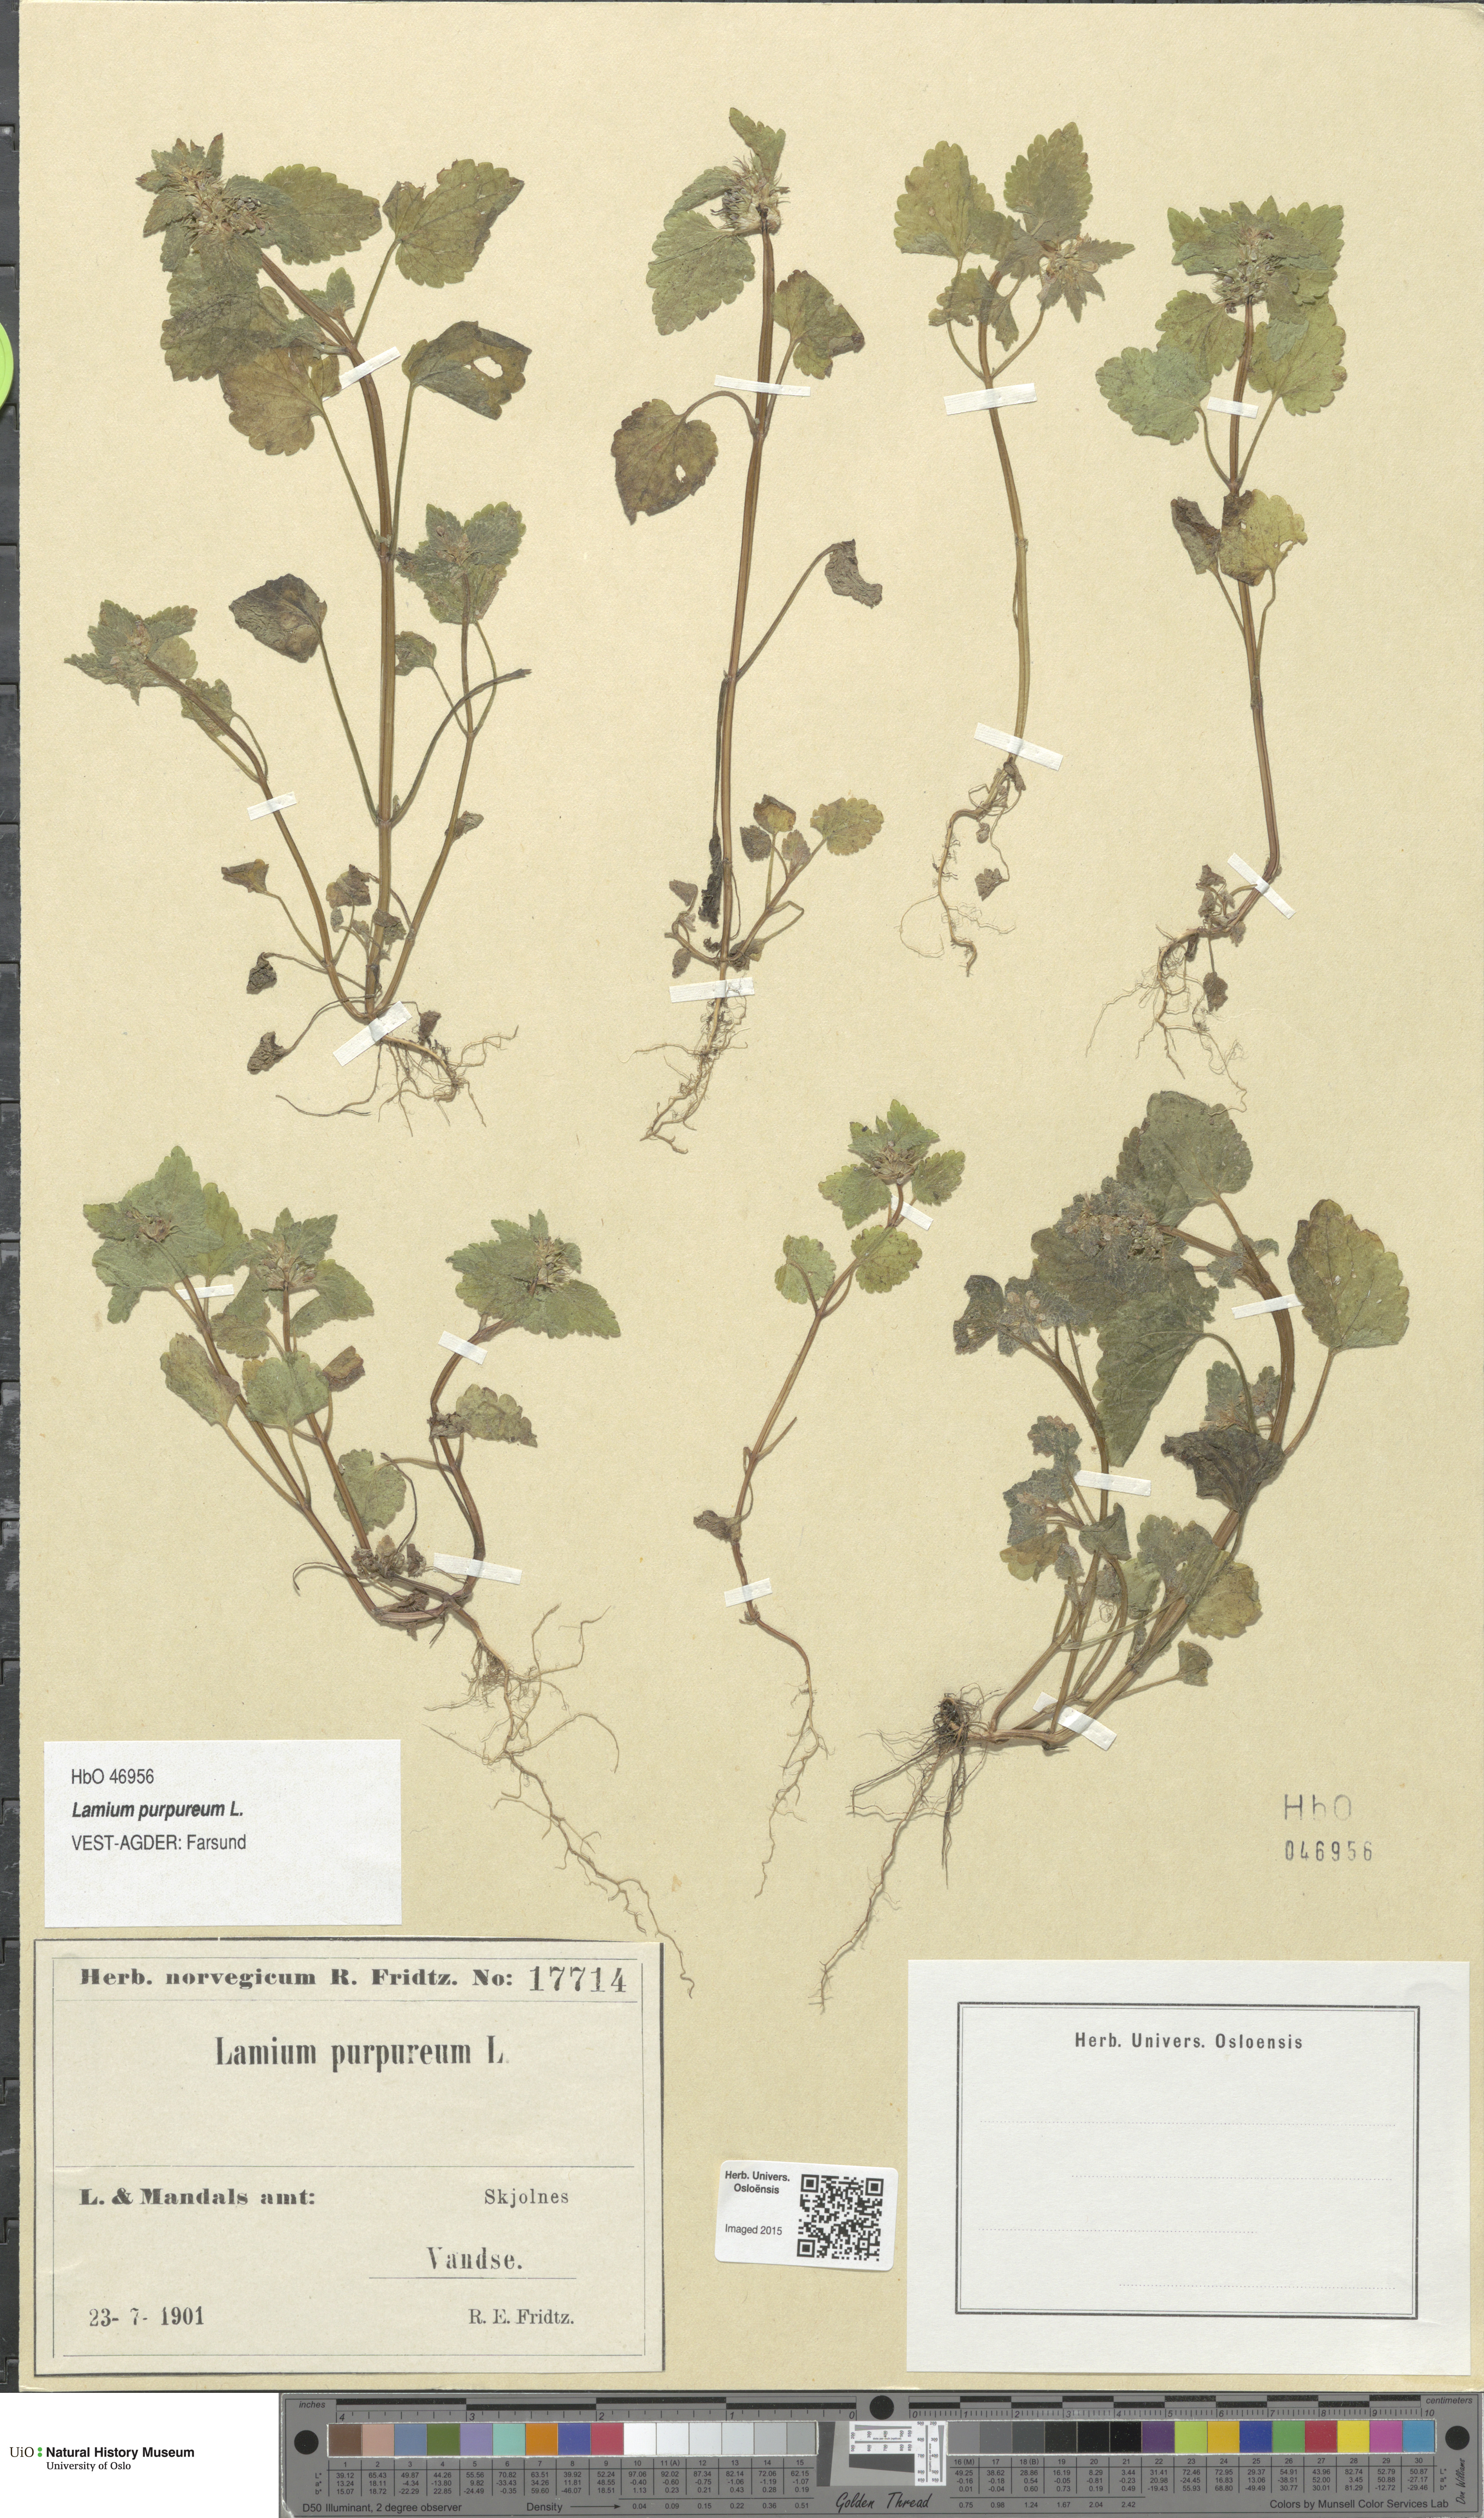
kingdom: Plantae
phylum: Tracheophyta
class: Magnoliopsida
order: Lamiales
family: Lamiaceae
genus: Lamium
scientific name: Lamium purpureum
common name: Red dead-nettle
